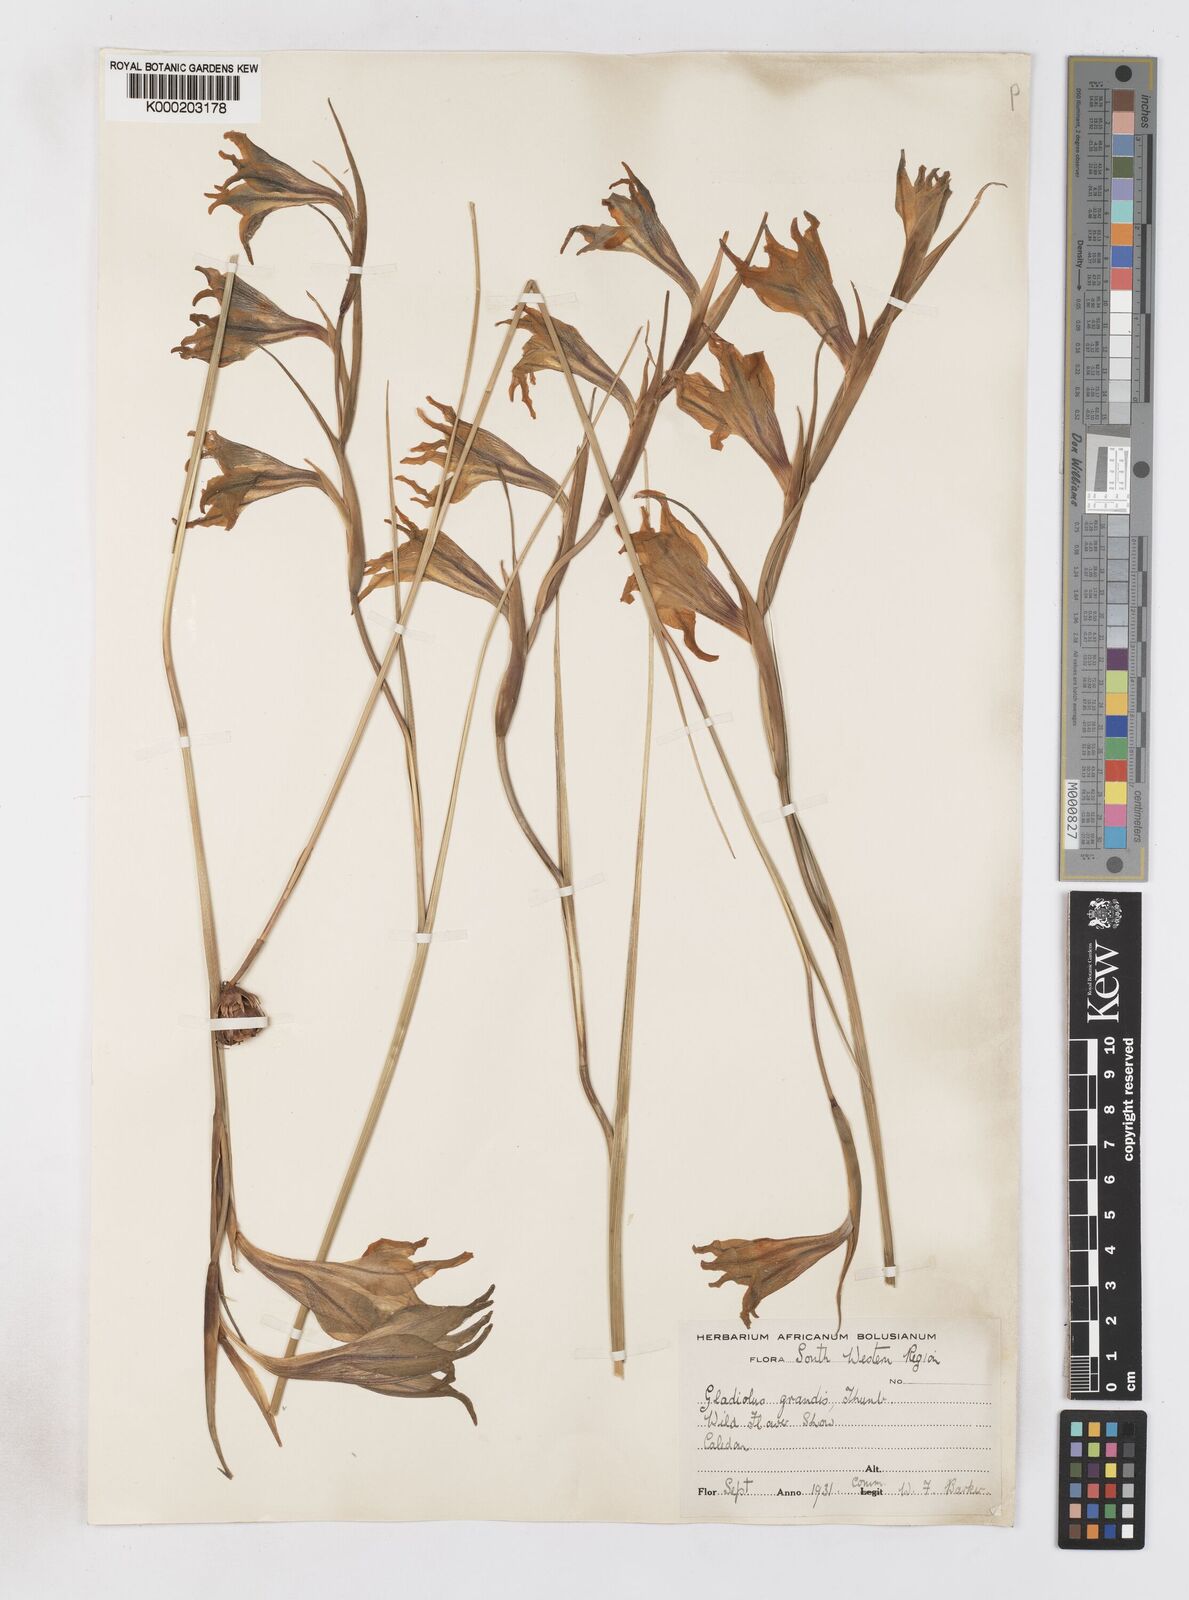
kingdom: Plantae
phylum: Tracheophyta
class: Liliopsida
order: Asparagales
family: Iridaceae
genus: Gladiolus
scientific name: Gladiolus liliaceus
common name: Large brown afrikaner
